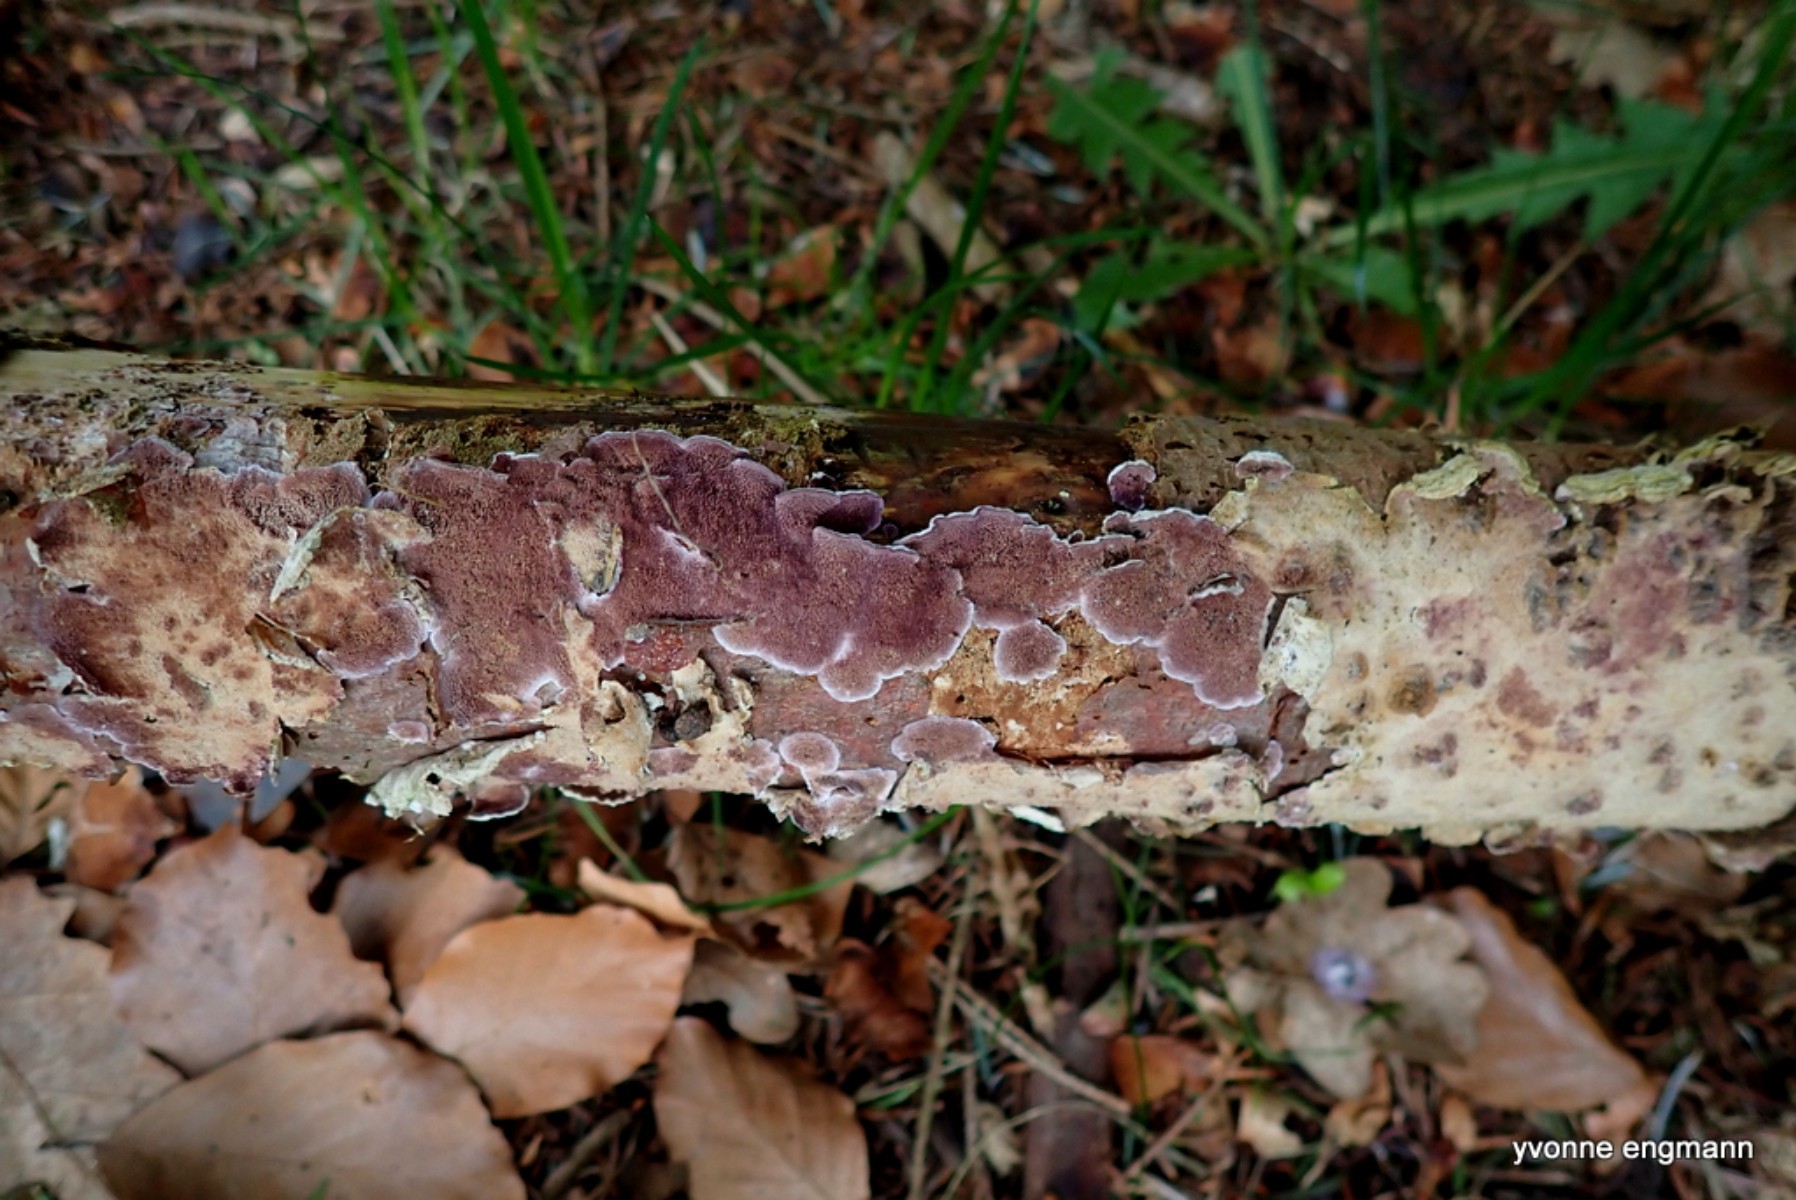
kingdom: Fungi
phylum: Basidiomycota
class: Agaricomycetes
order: Hymenochaetales
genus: Trichaptum
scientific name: Trichaptum abietinum
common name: almindelig violporesvamp
